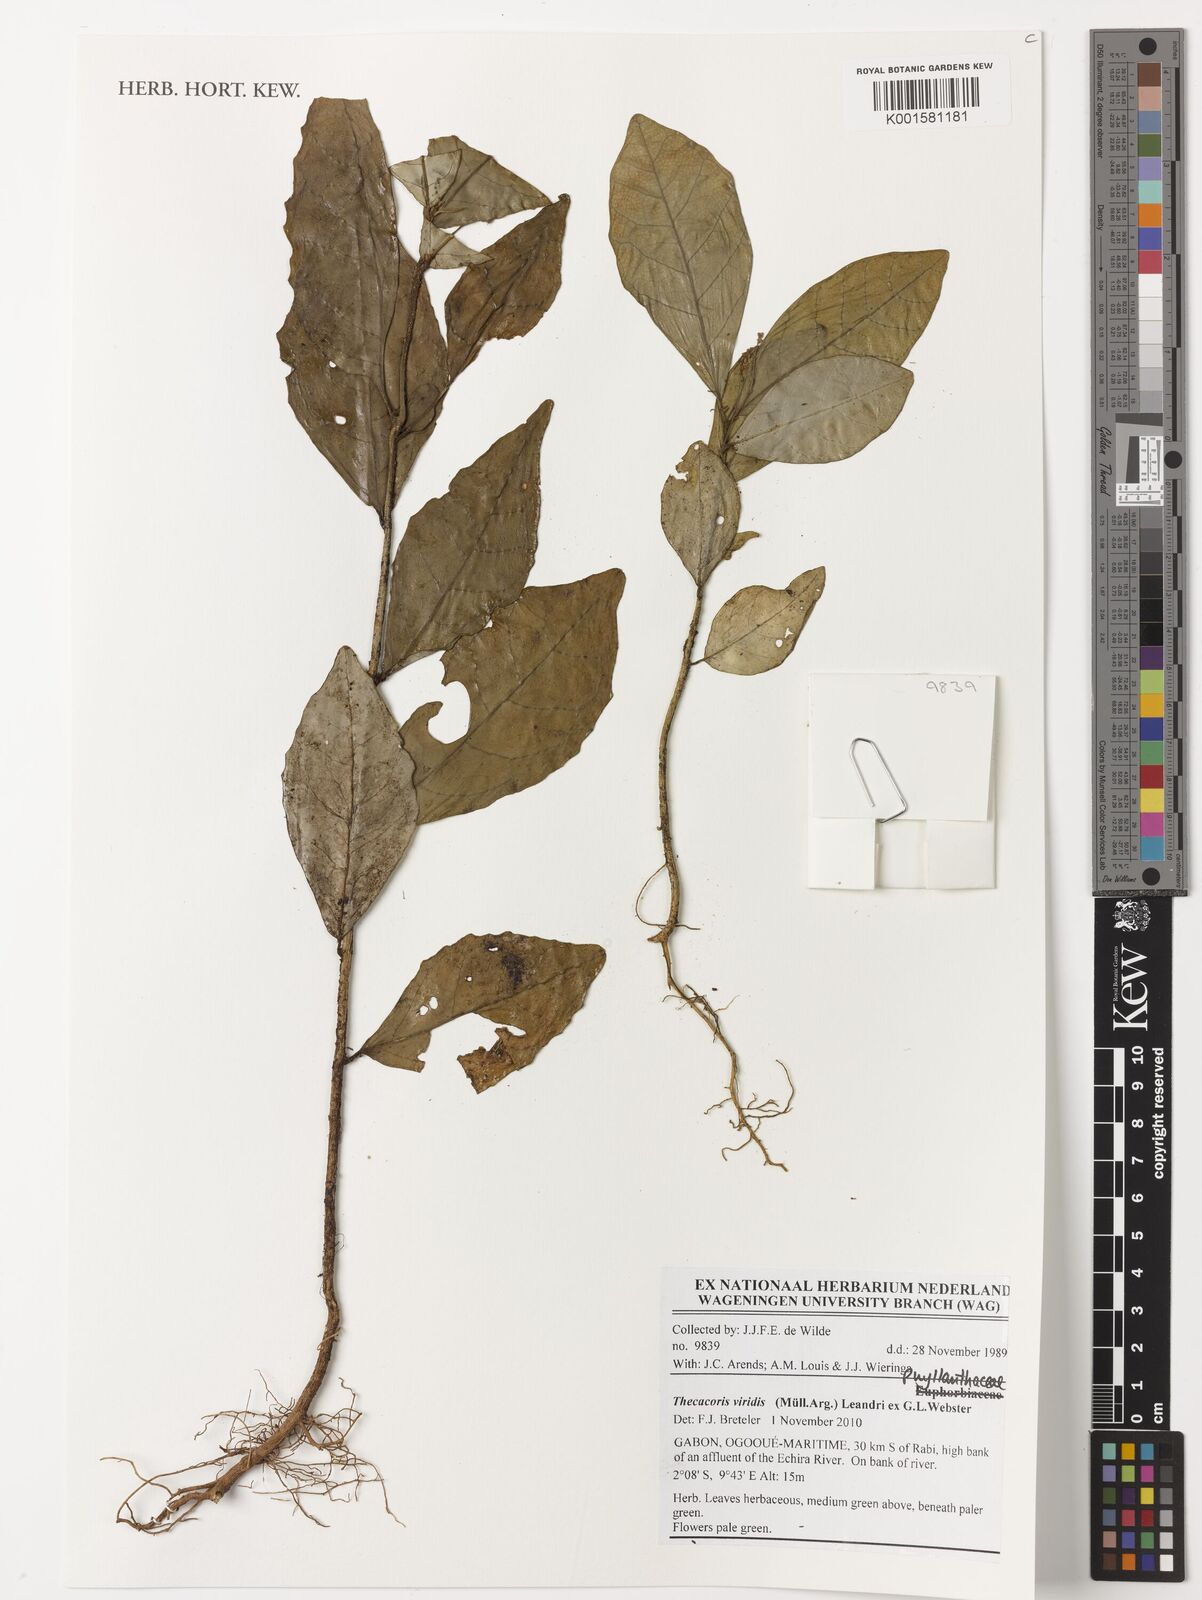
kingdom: Plantae
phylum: Tracheophyta
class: Magnoliopsida
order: Malpighiales
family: Phyllanthaceae
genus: Thecacoris
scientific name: Thecacoris viridis
